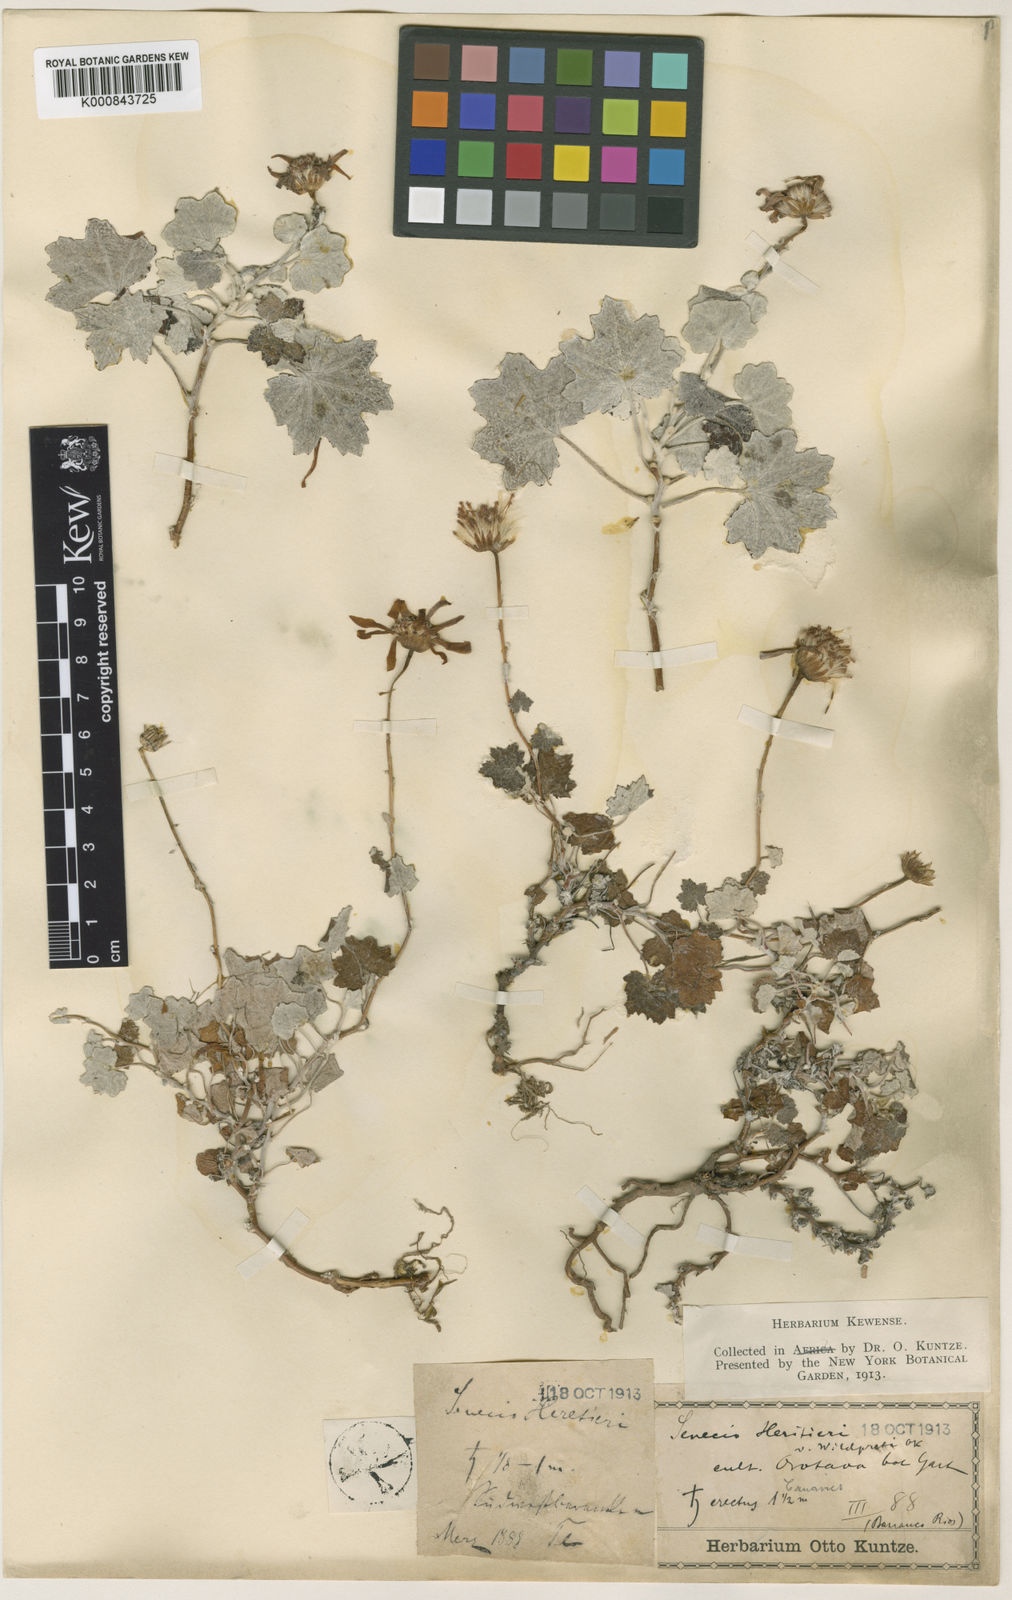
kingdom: Plantae
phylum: Tracheophyta
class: Magnoliopsida
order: Asterales
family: Asteraceae
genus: Senecio
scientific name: Senecio
